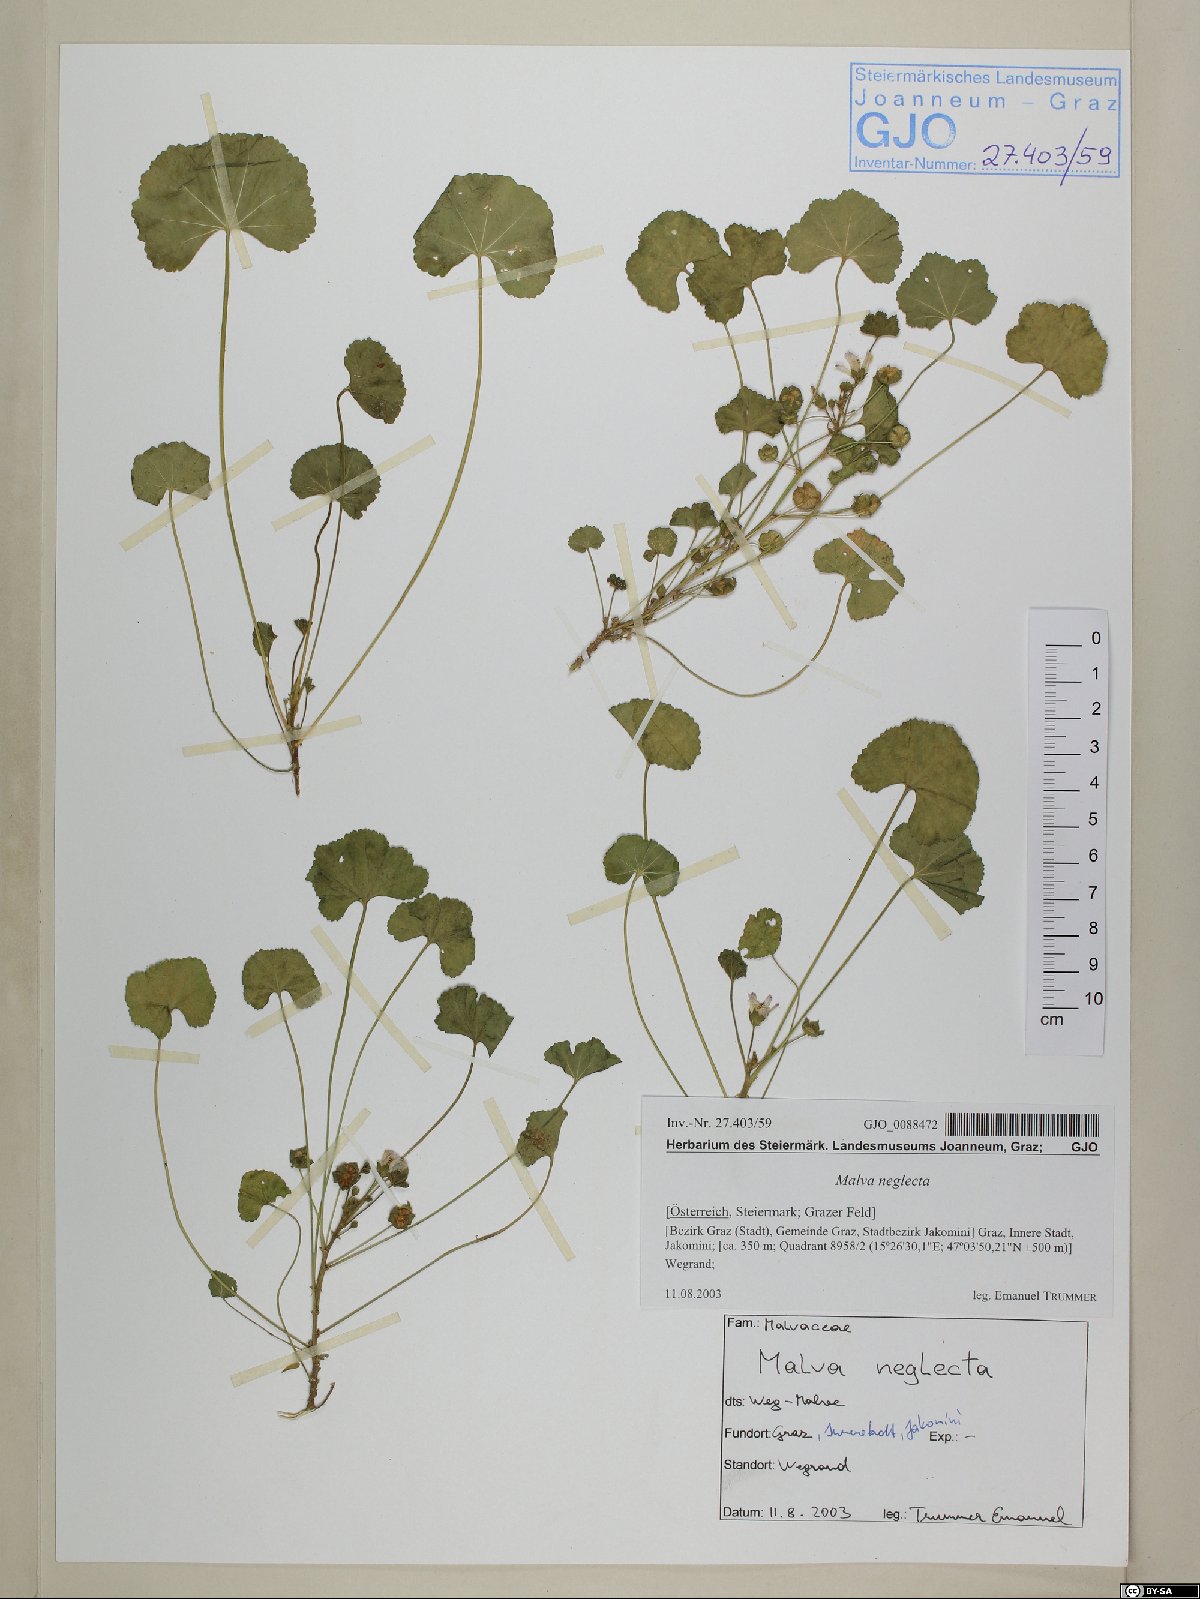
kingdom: Plantae
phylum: Tracheophyta
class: Magnoliopsida
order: Malvales
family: Malvaceae
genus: Malva
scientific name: Malva neglecta
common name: Common mallow
